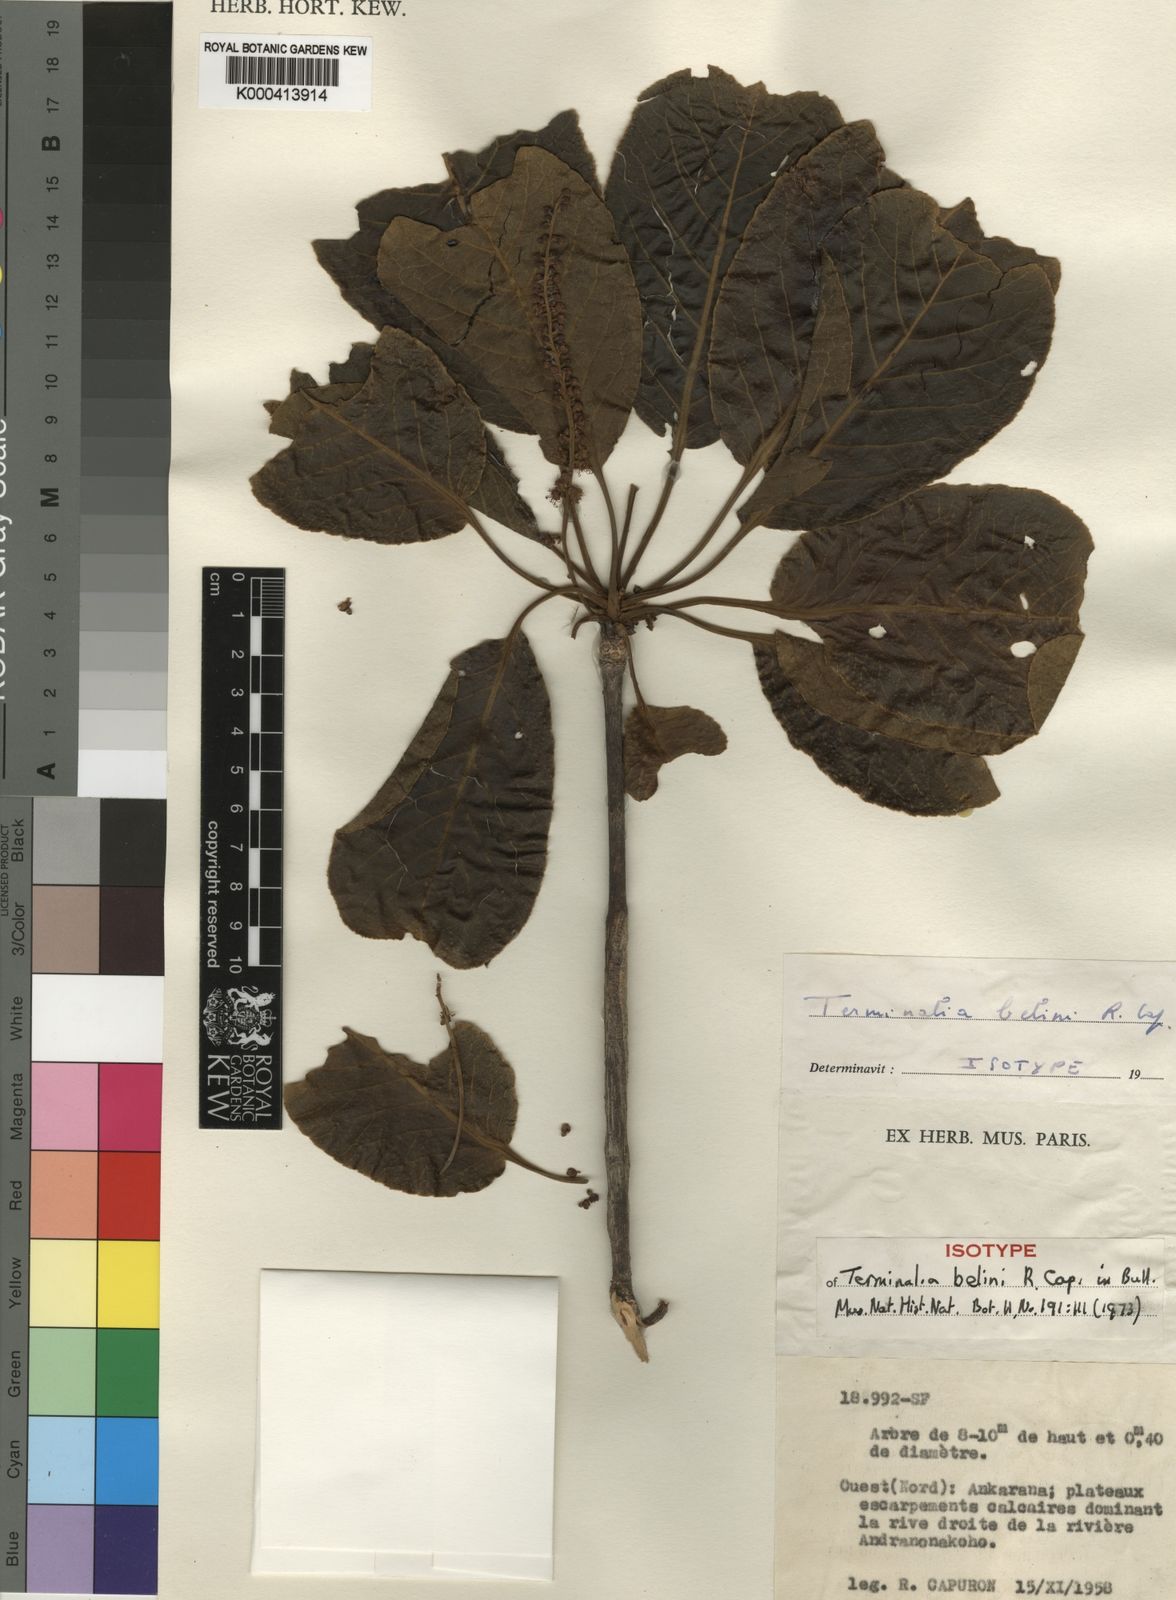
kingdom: Plantae
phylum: Tracheophyta
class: Magnoliopsida
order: Myrtales
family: Combretaceae
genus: Terminalia
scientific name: Terminalia belini
